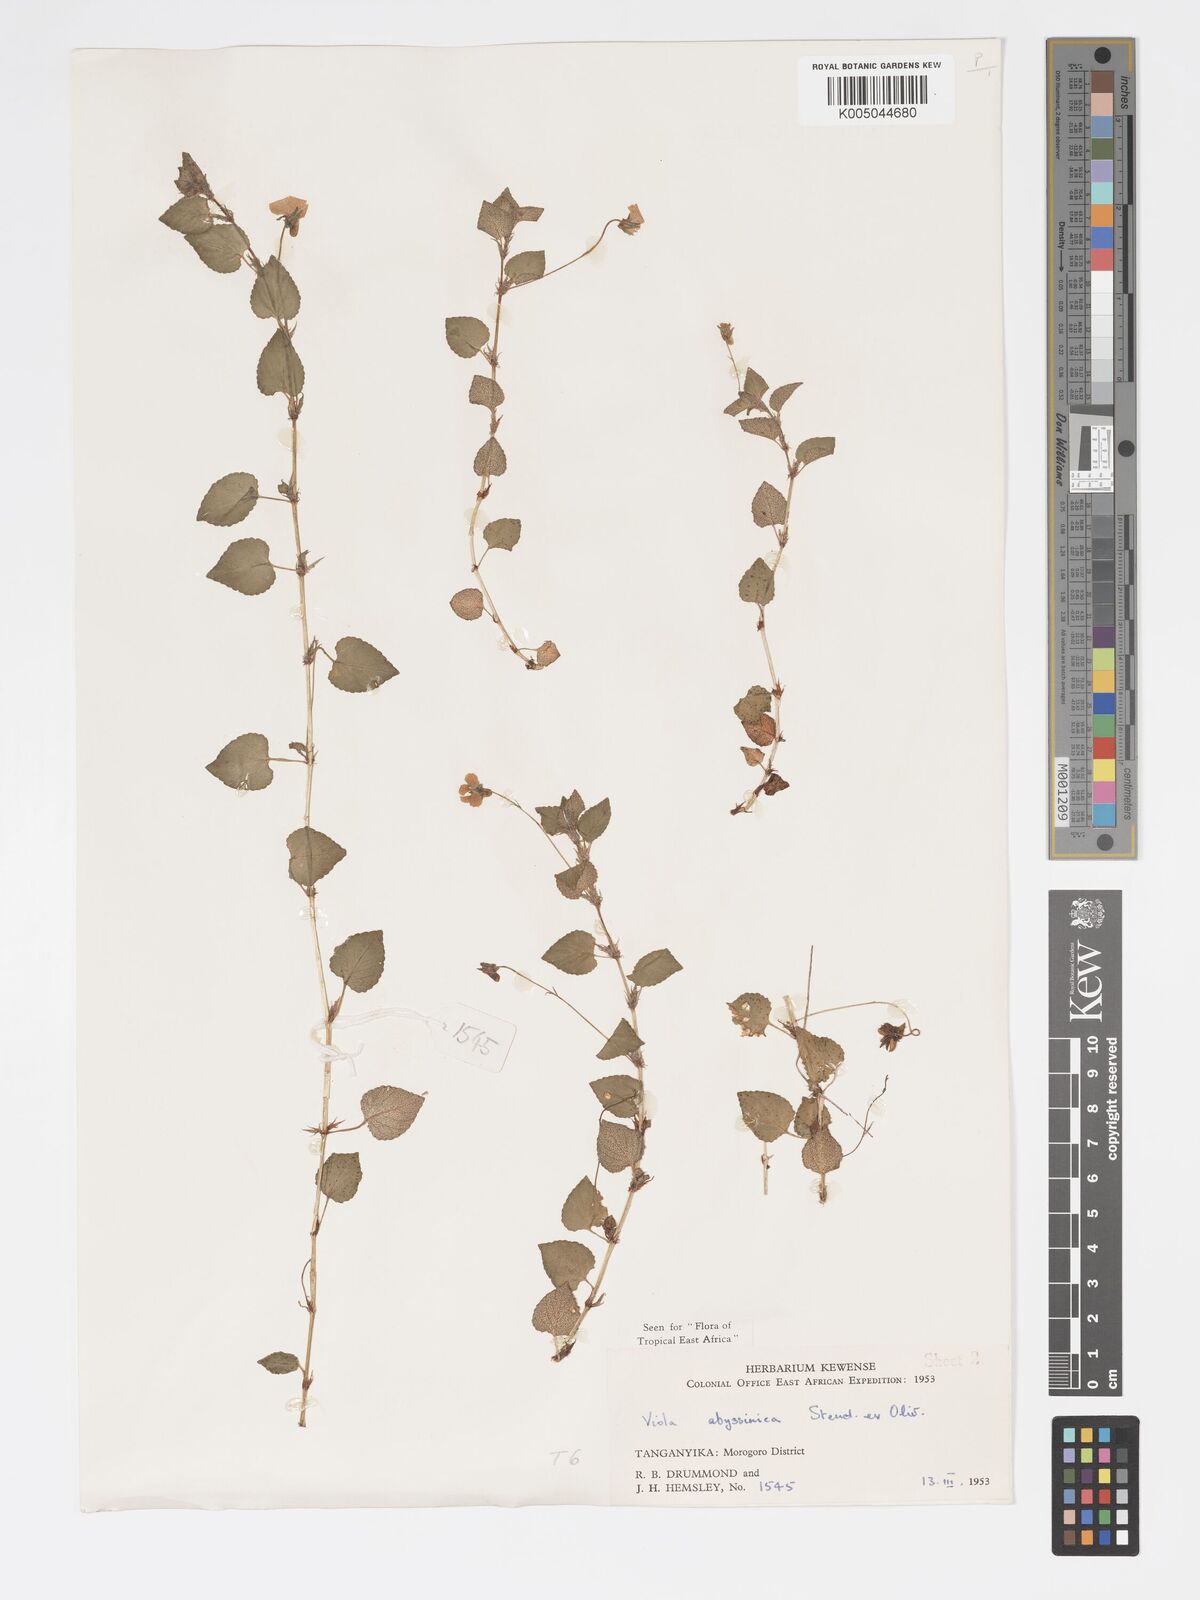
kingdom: Plantae
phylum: Tracheophyta
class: Magnoliopsida
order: Malpighiales
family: Violaceae
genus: Viola
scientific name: Viola abyssinica
